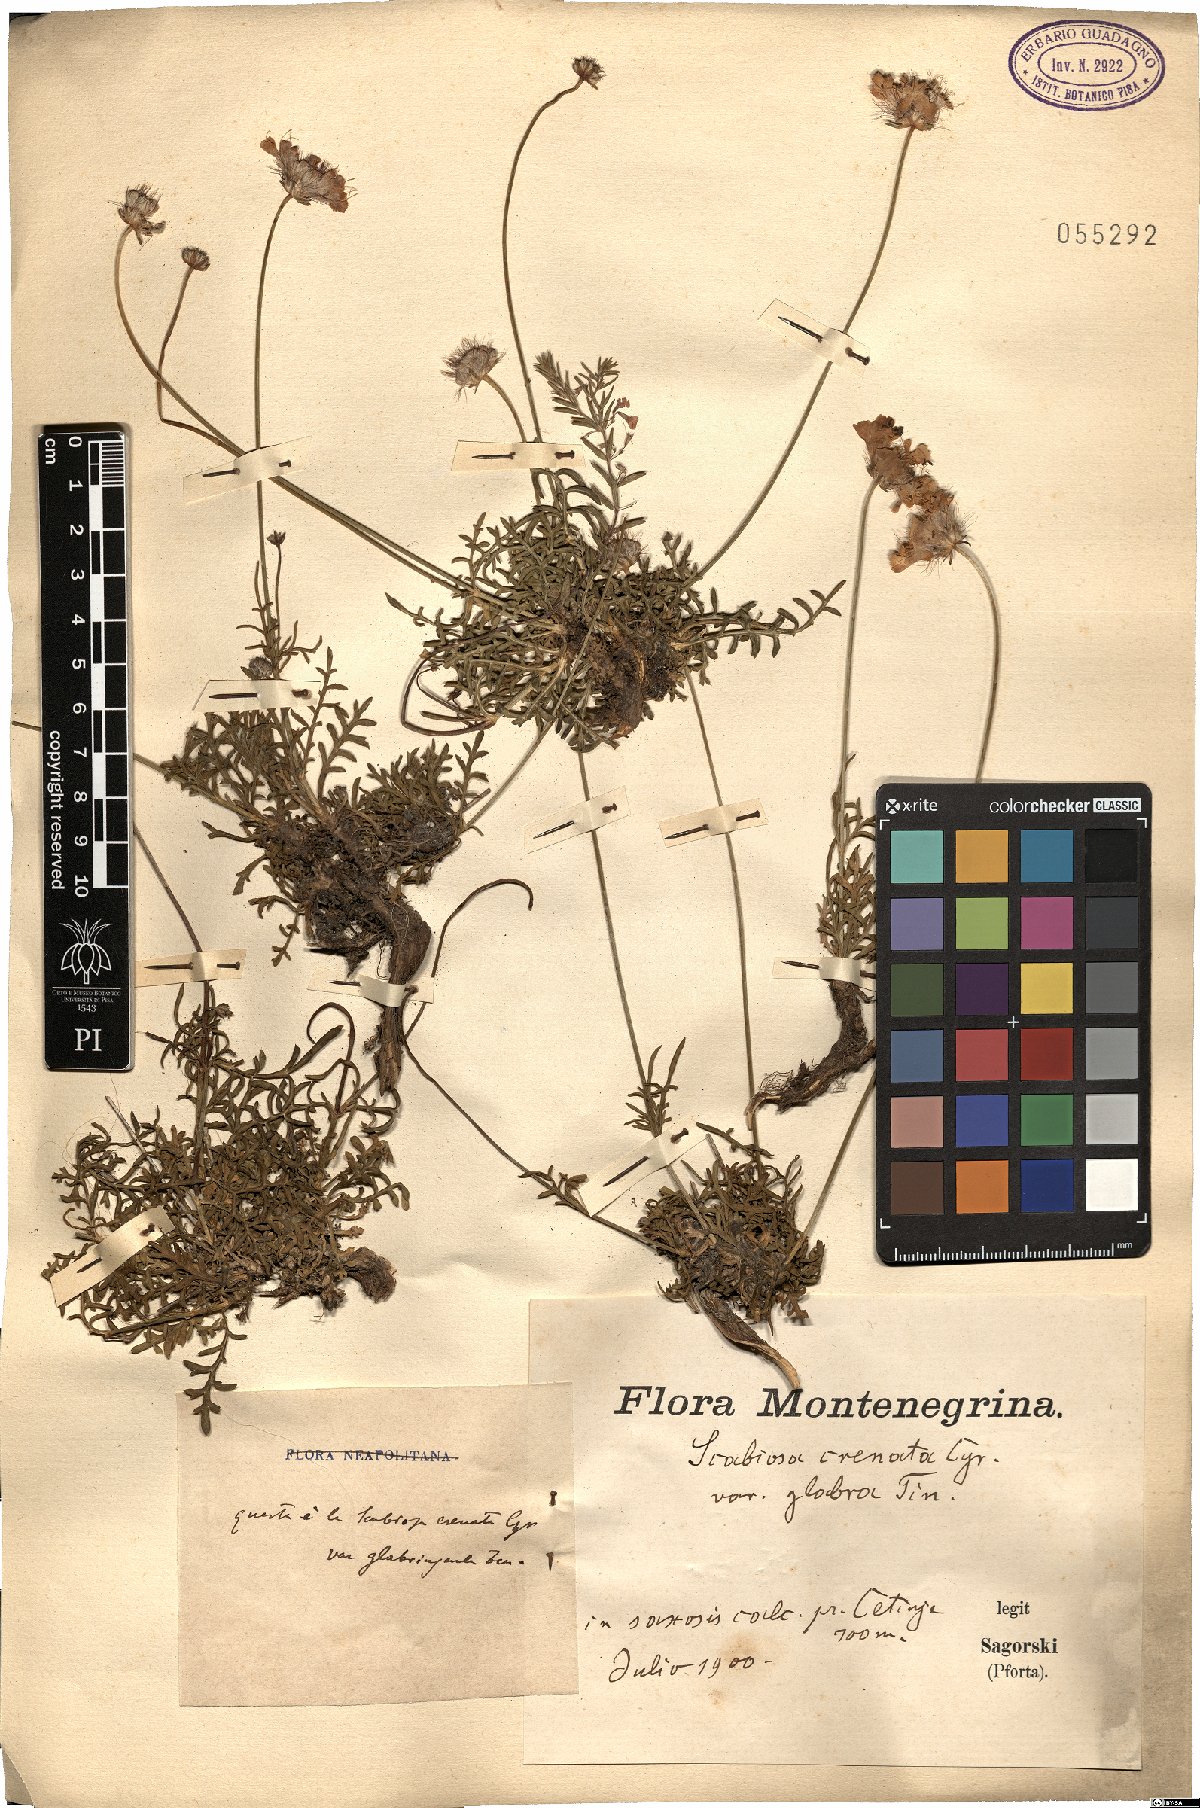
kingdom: Plantae
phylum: Tracheophyta
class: Magnoliopsida
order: Dipsacales
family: Caprifoliaceae
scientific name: Caprifoliaceae
